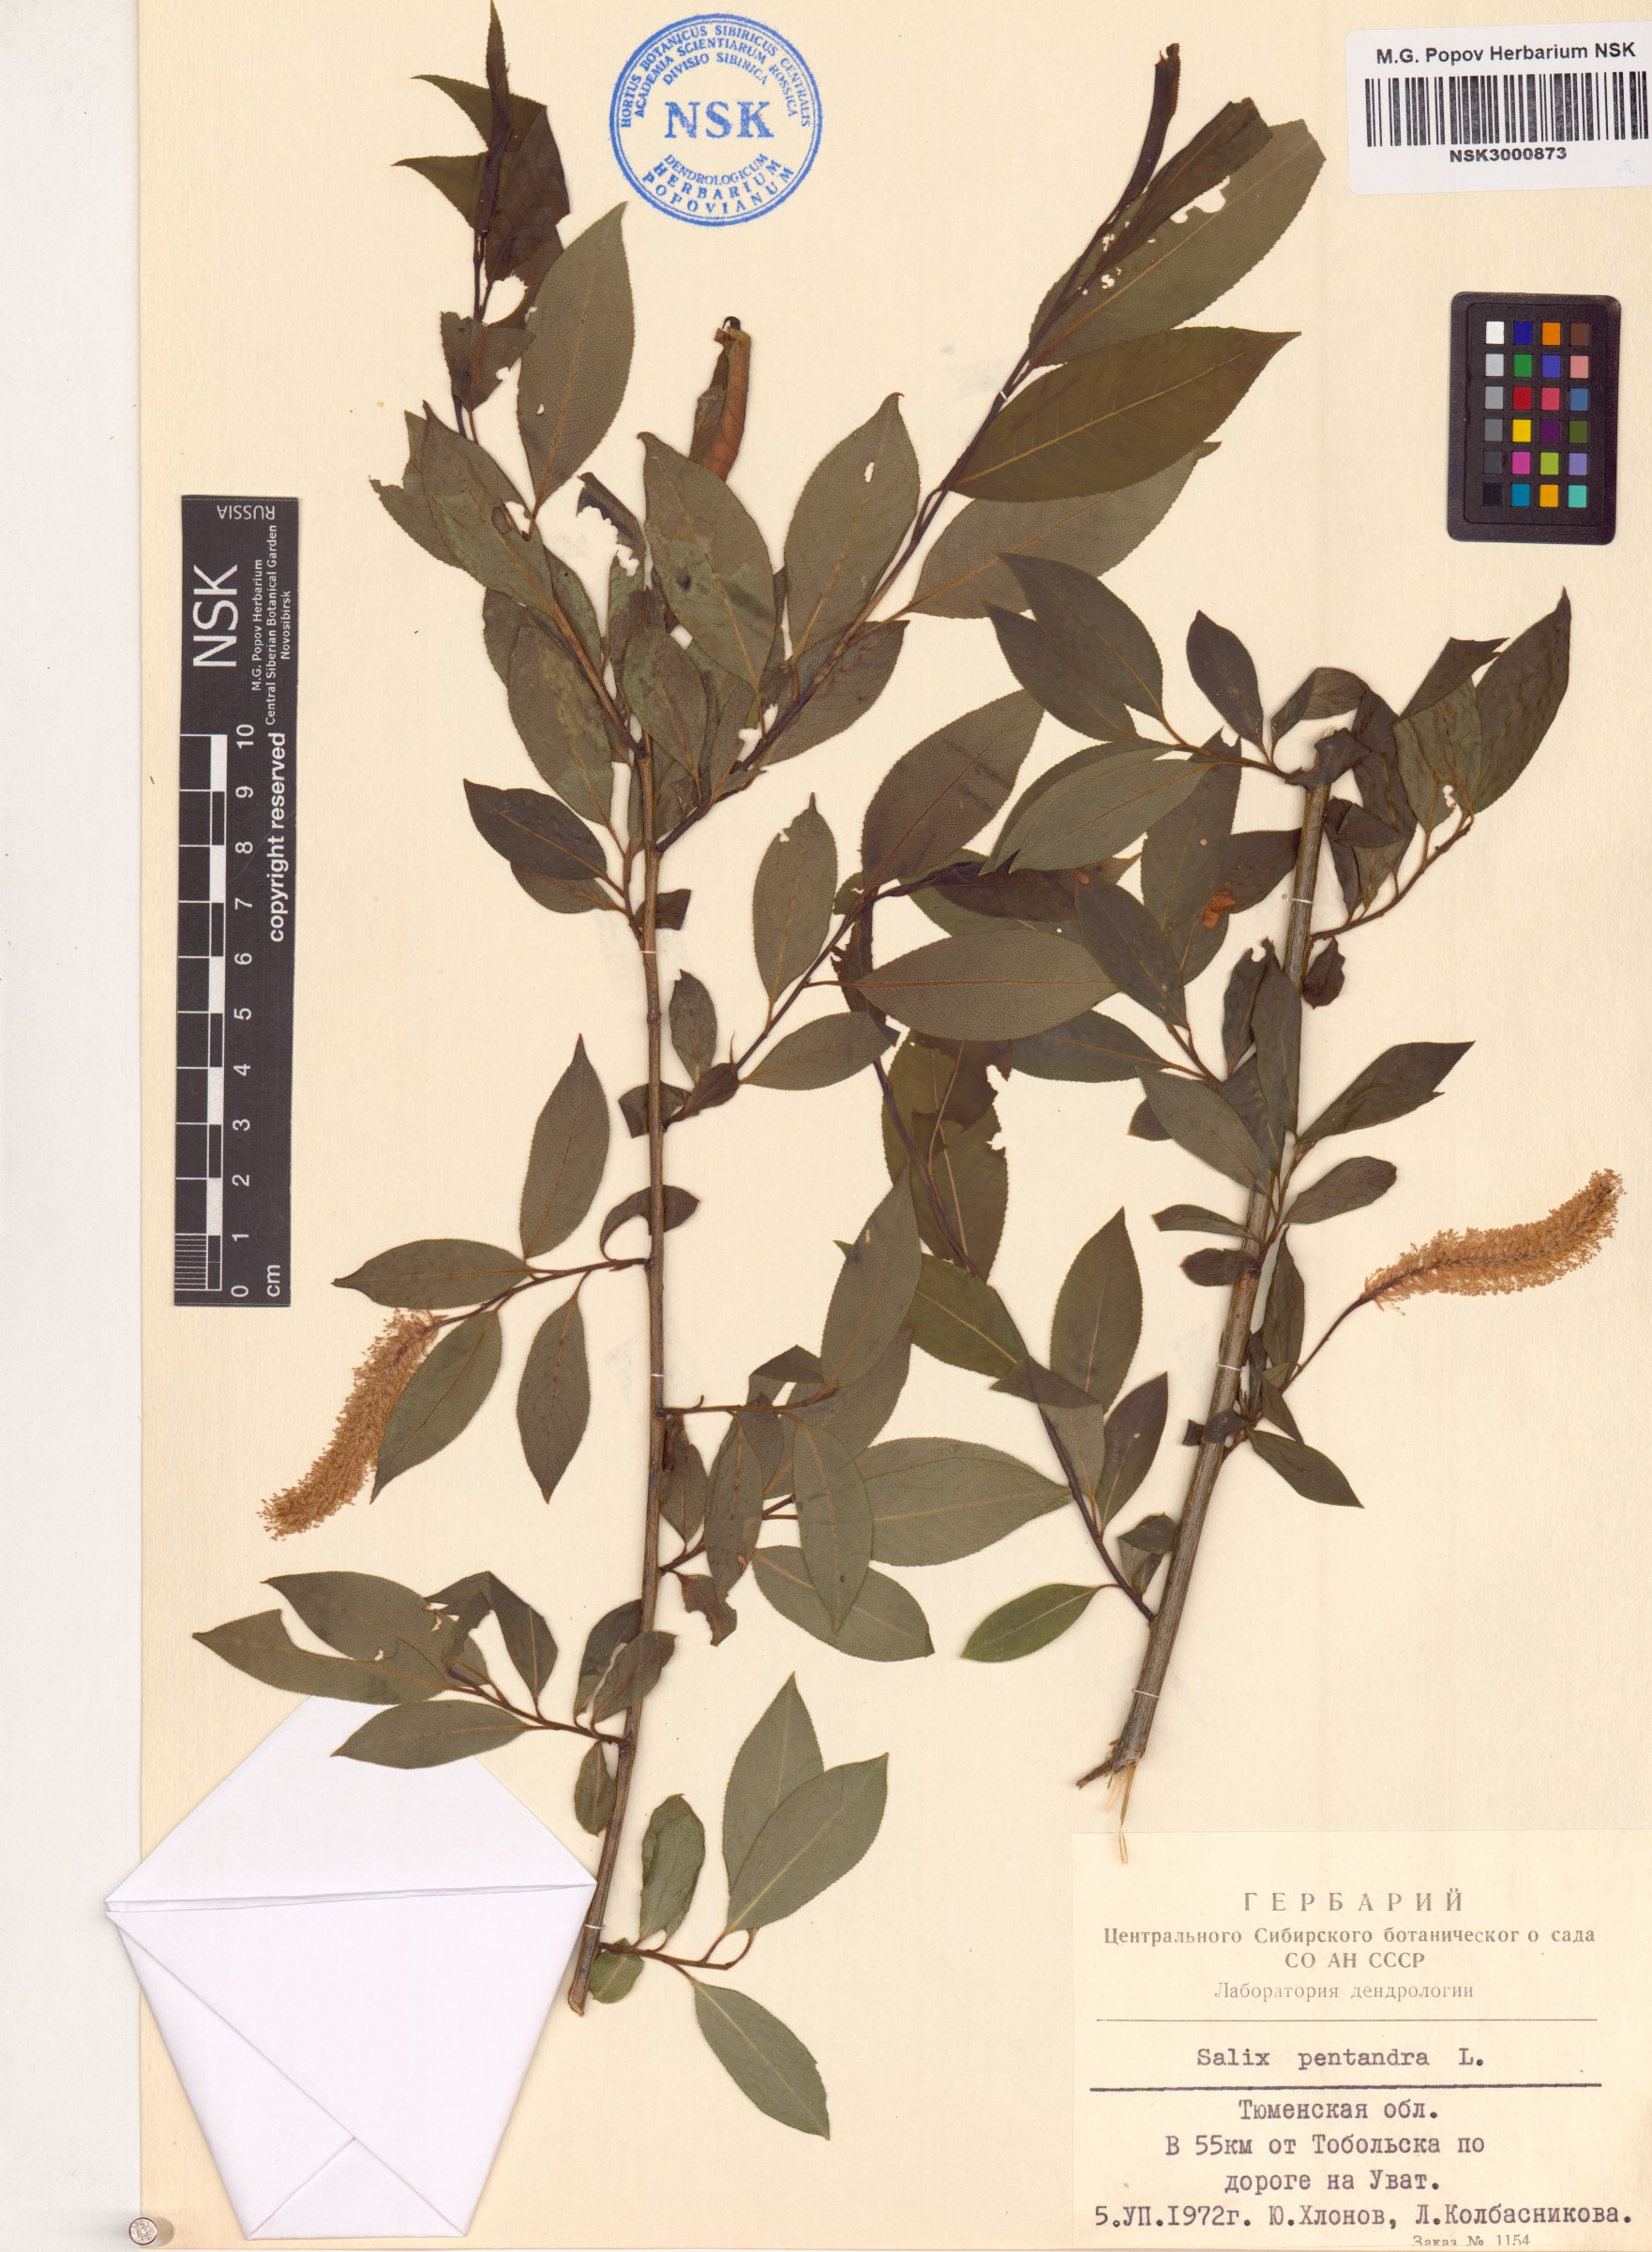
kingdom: Plantae
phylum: Tracheophyta
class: Magnoliopsida
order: Malpighiales
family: Salicaceae
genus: Salix
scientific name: Salix pentandra
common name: Bay willow
